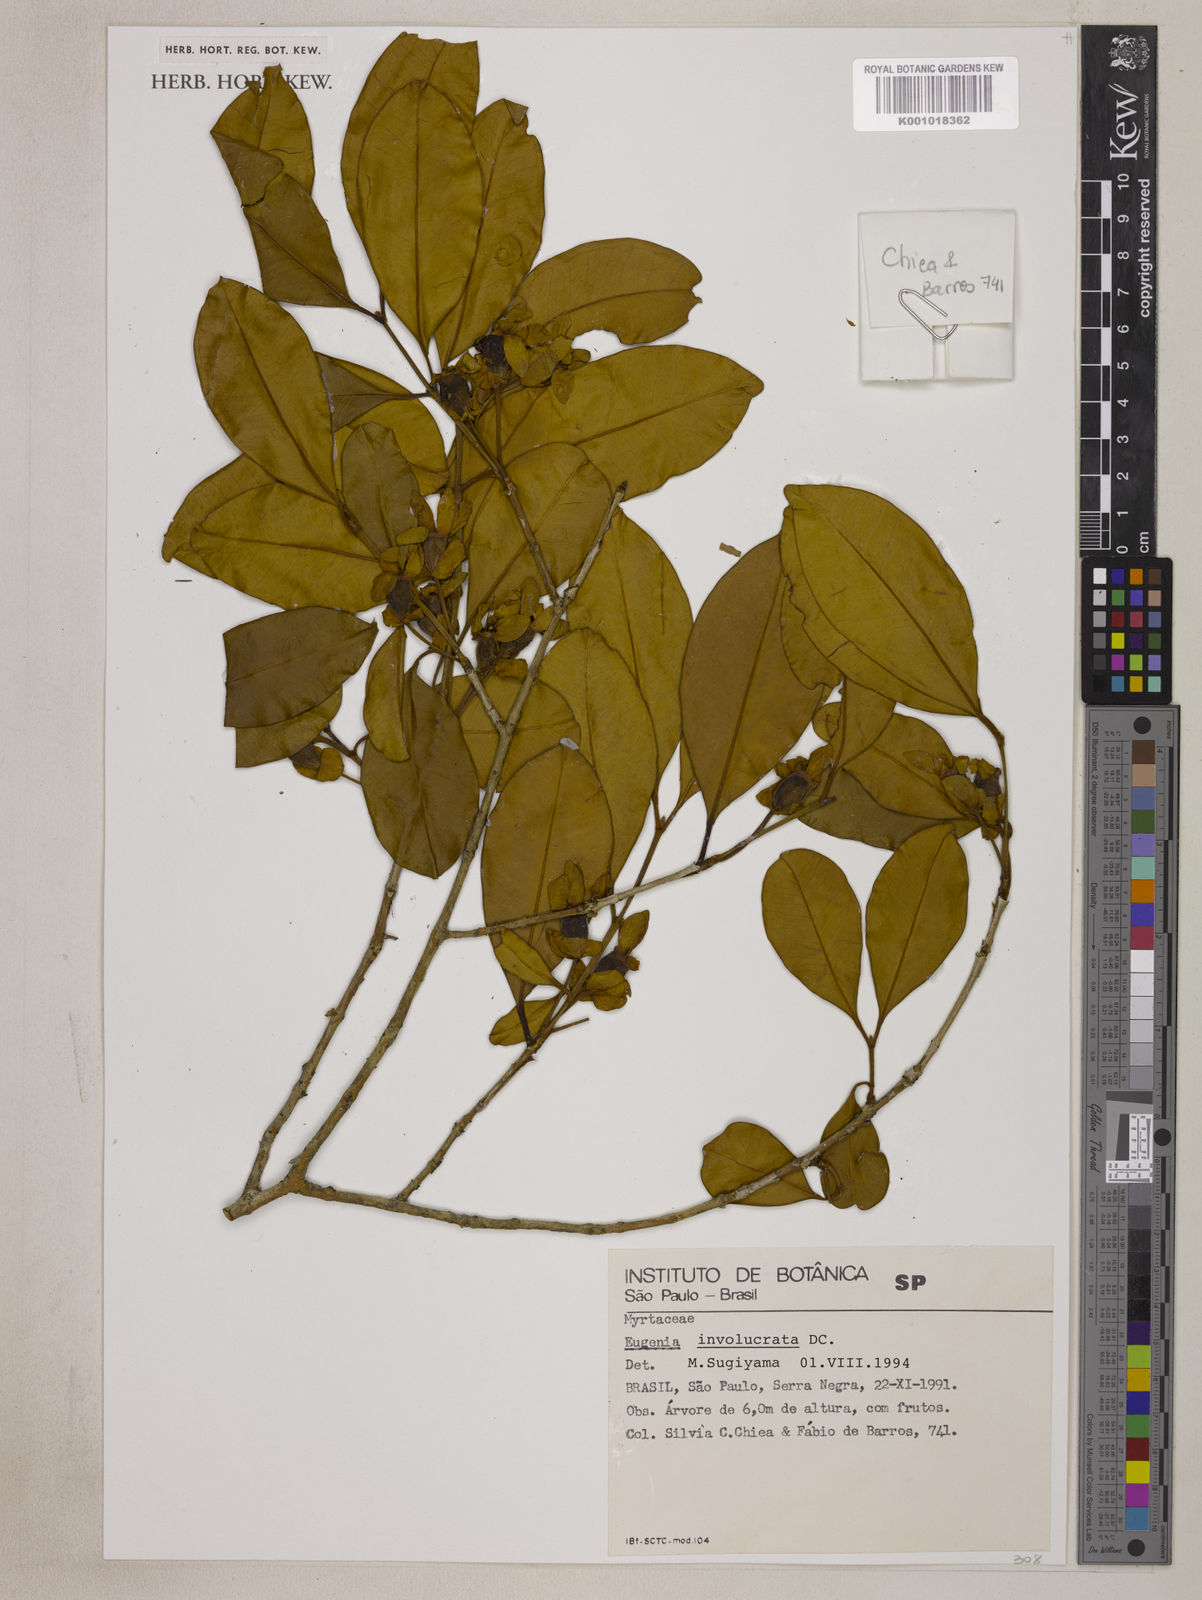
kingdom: Plantae
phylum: Tracheophyta
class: Magnoliopsida
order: Myrtales
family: Myrtaceae
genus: Eugenia
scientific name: Eugenia involucrata
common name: Cherry-of-the-rio grande
